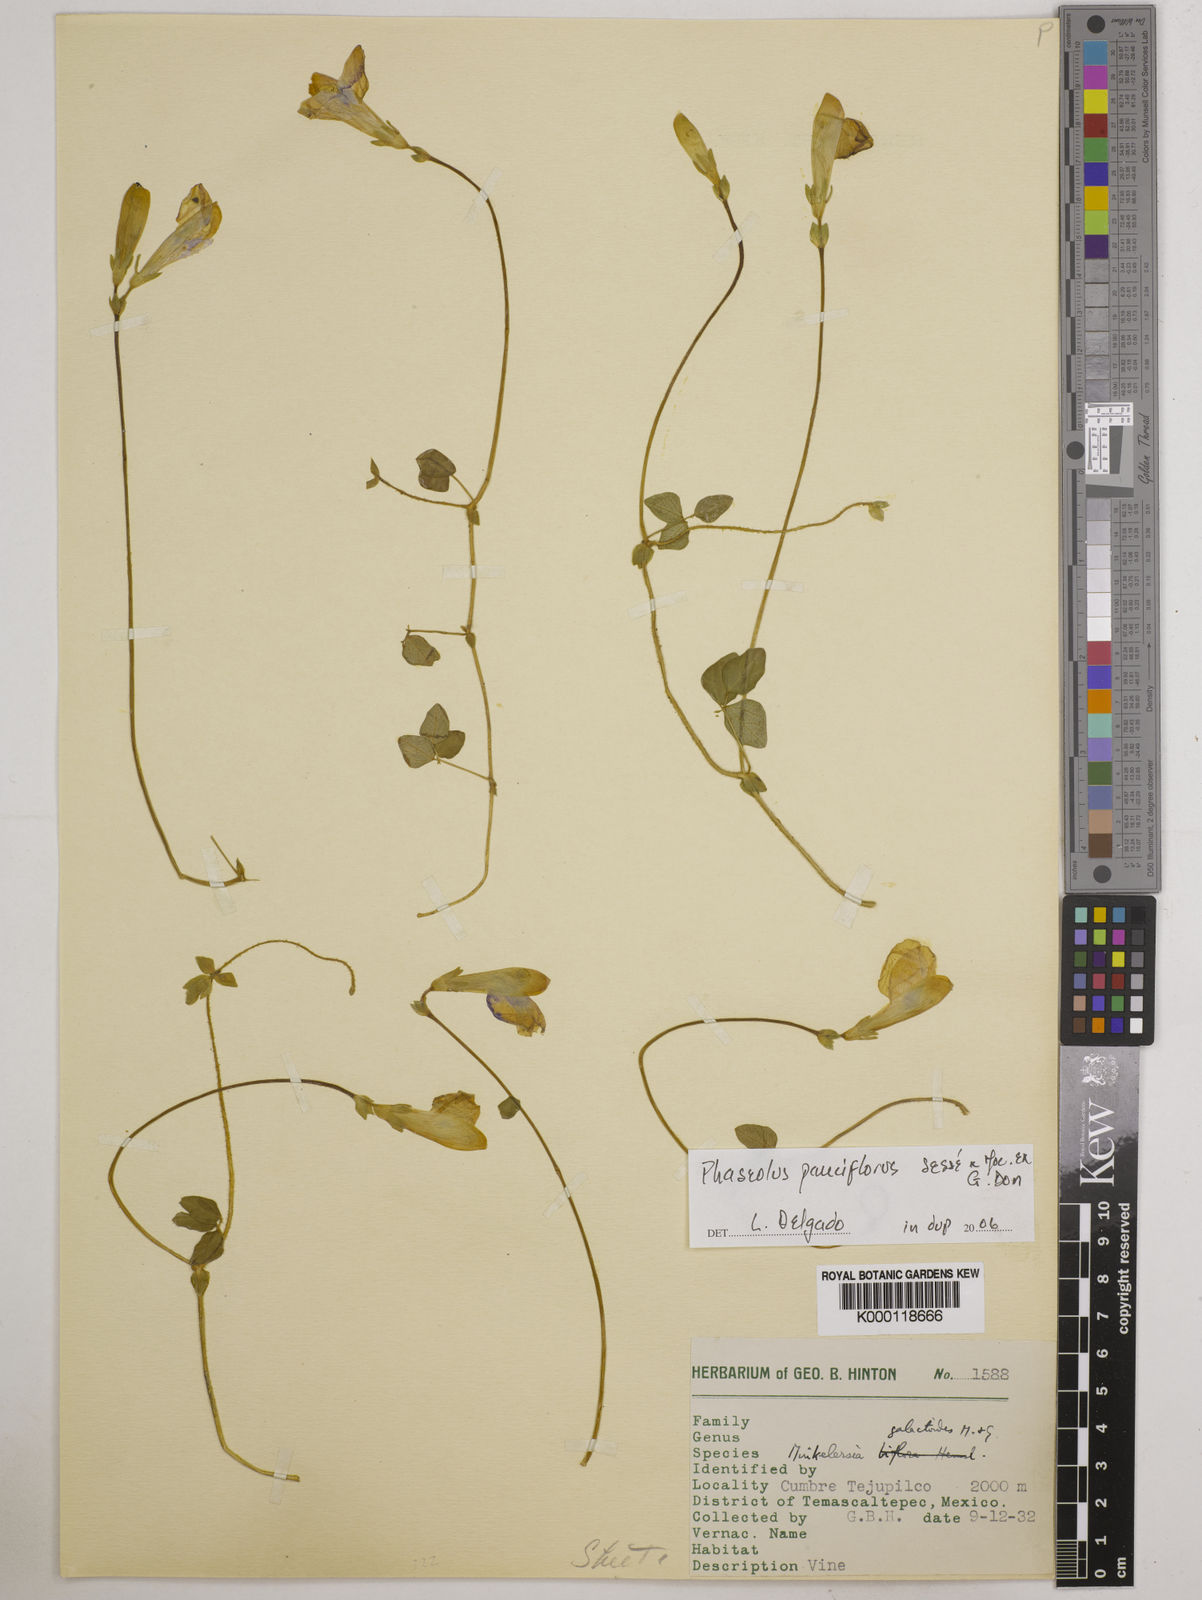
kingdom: Plantae
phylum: Tracheophyta
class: Magnoliopsida
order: Fabales
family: Fabaceae
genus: Phaseolus
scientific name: Phaseolus
